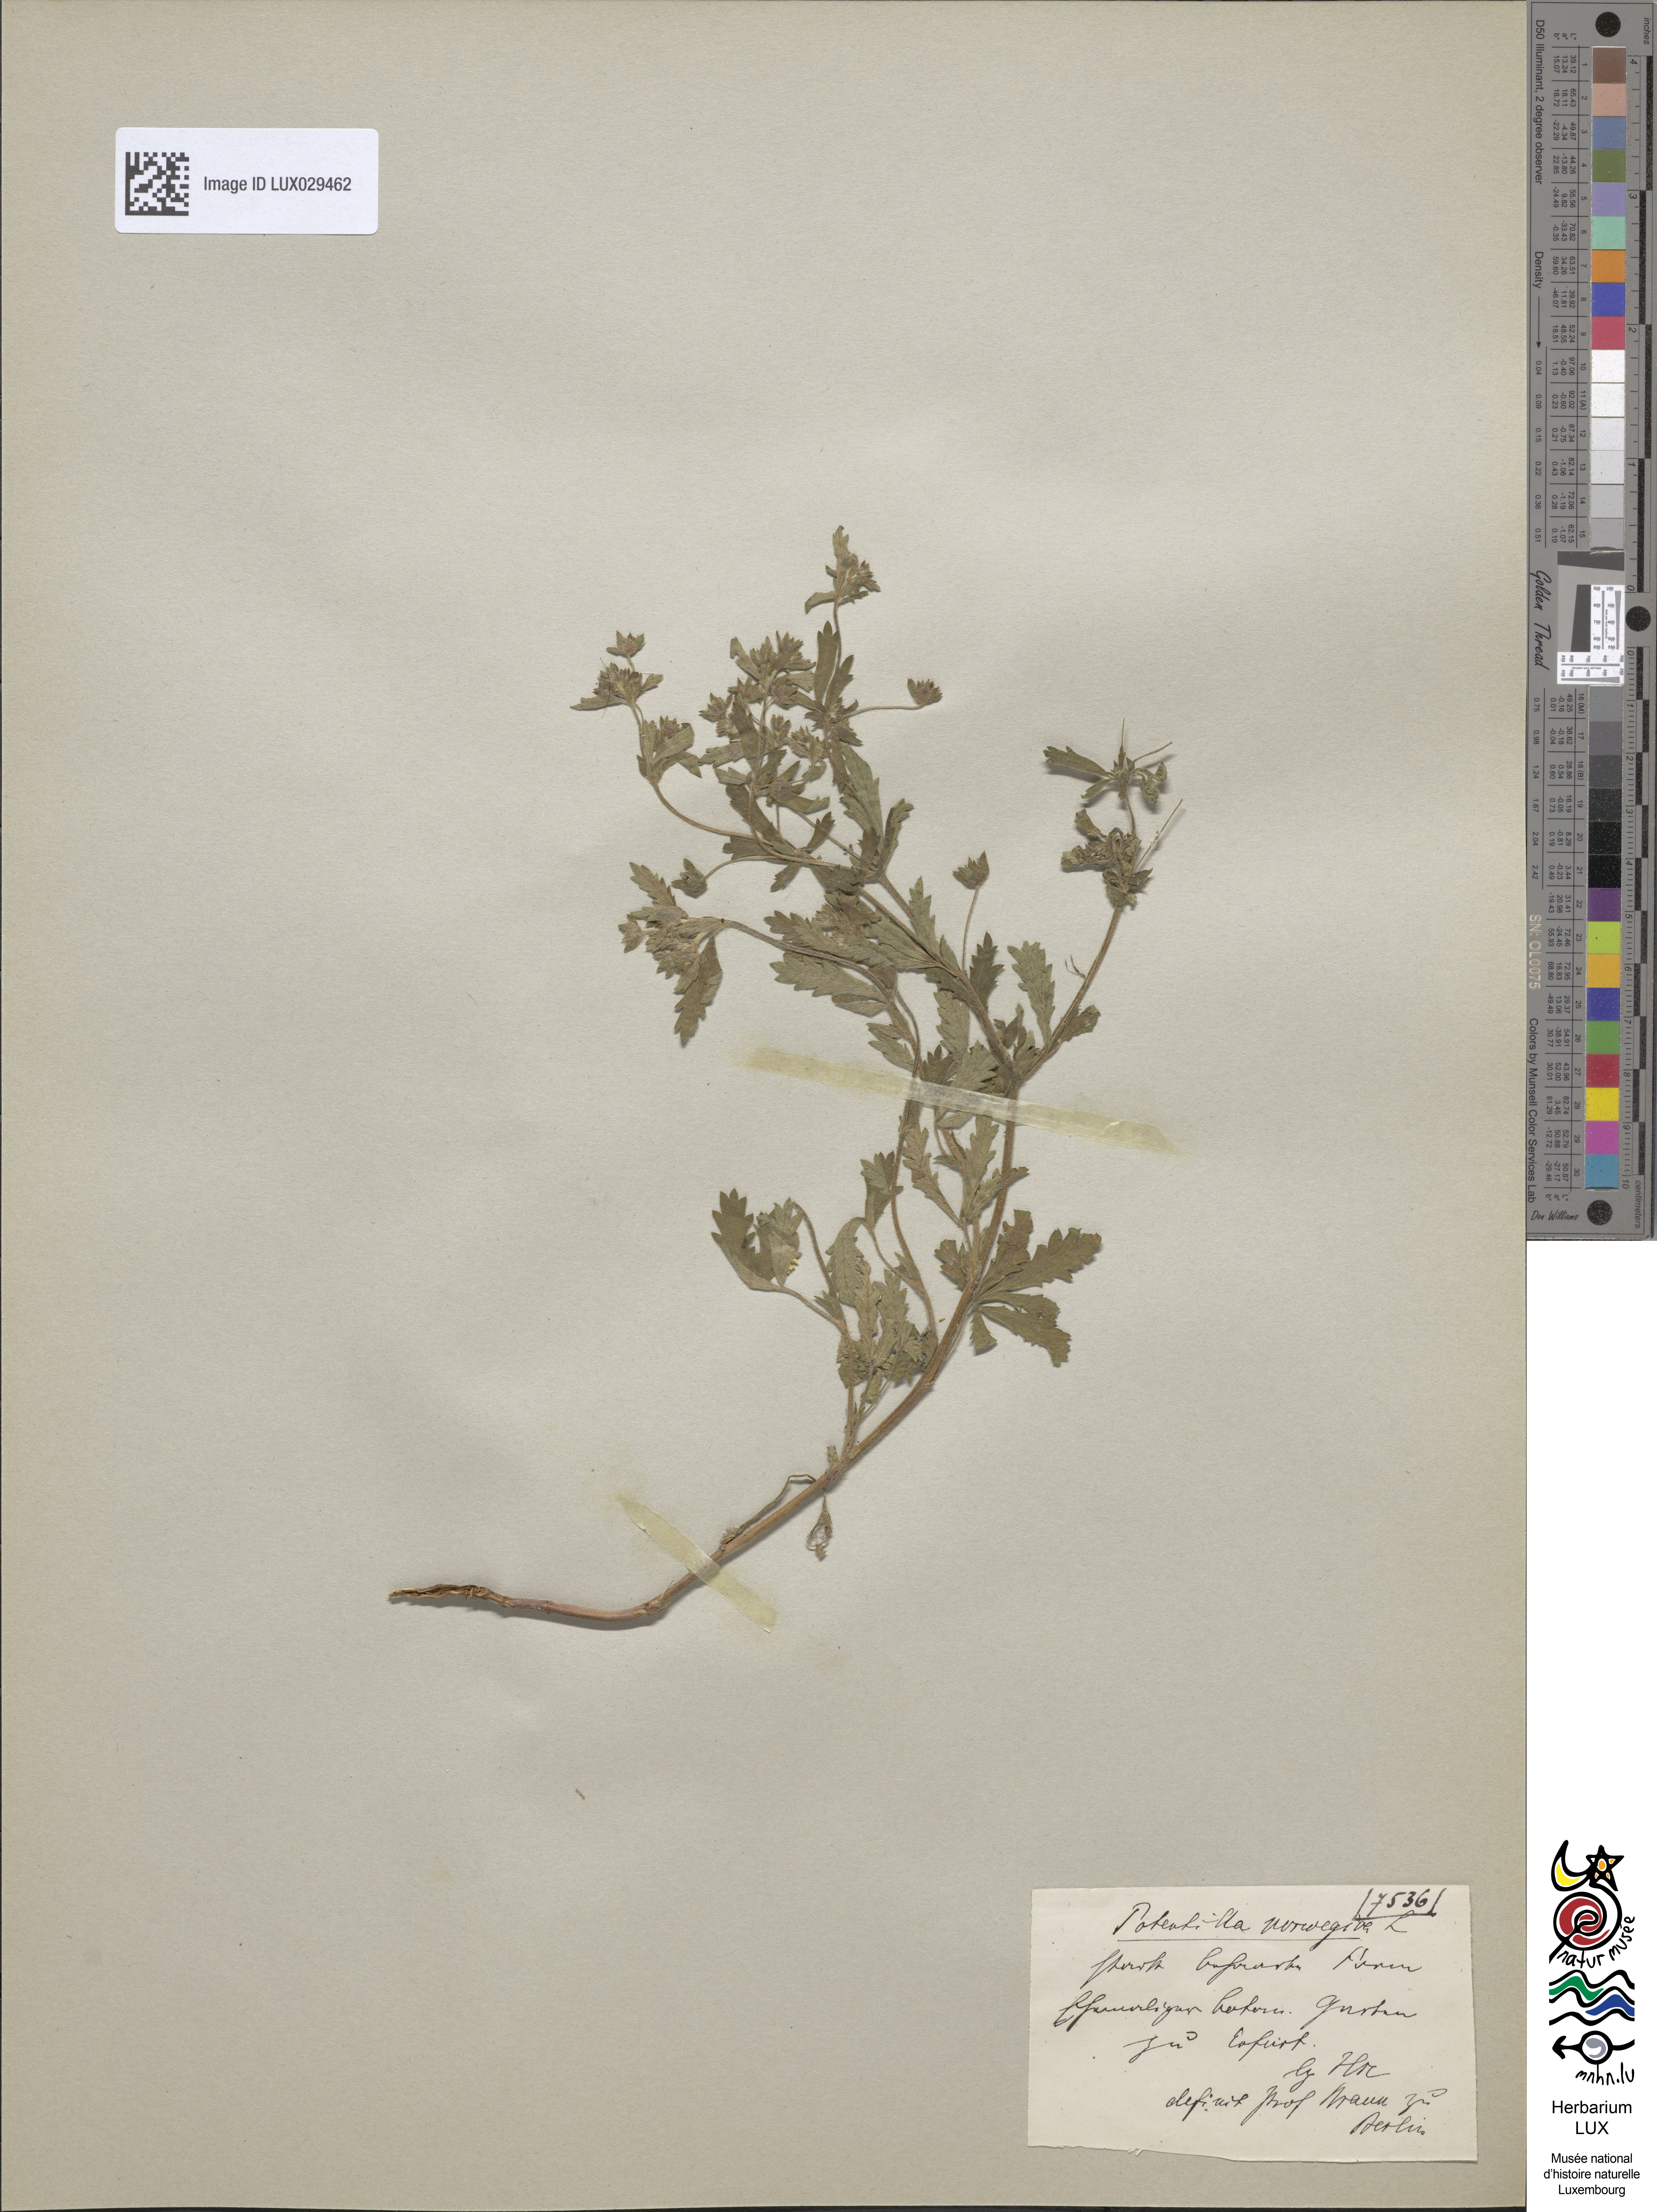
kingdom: Plantae
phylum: Tracheophyta
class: Magnoliopsida
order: Rosales
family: Rosaceae
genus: Potentilla
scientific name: Potentilla norvegica
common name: Ternate-leaved cinquefoil
